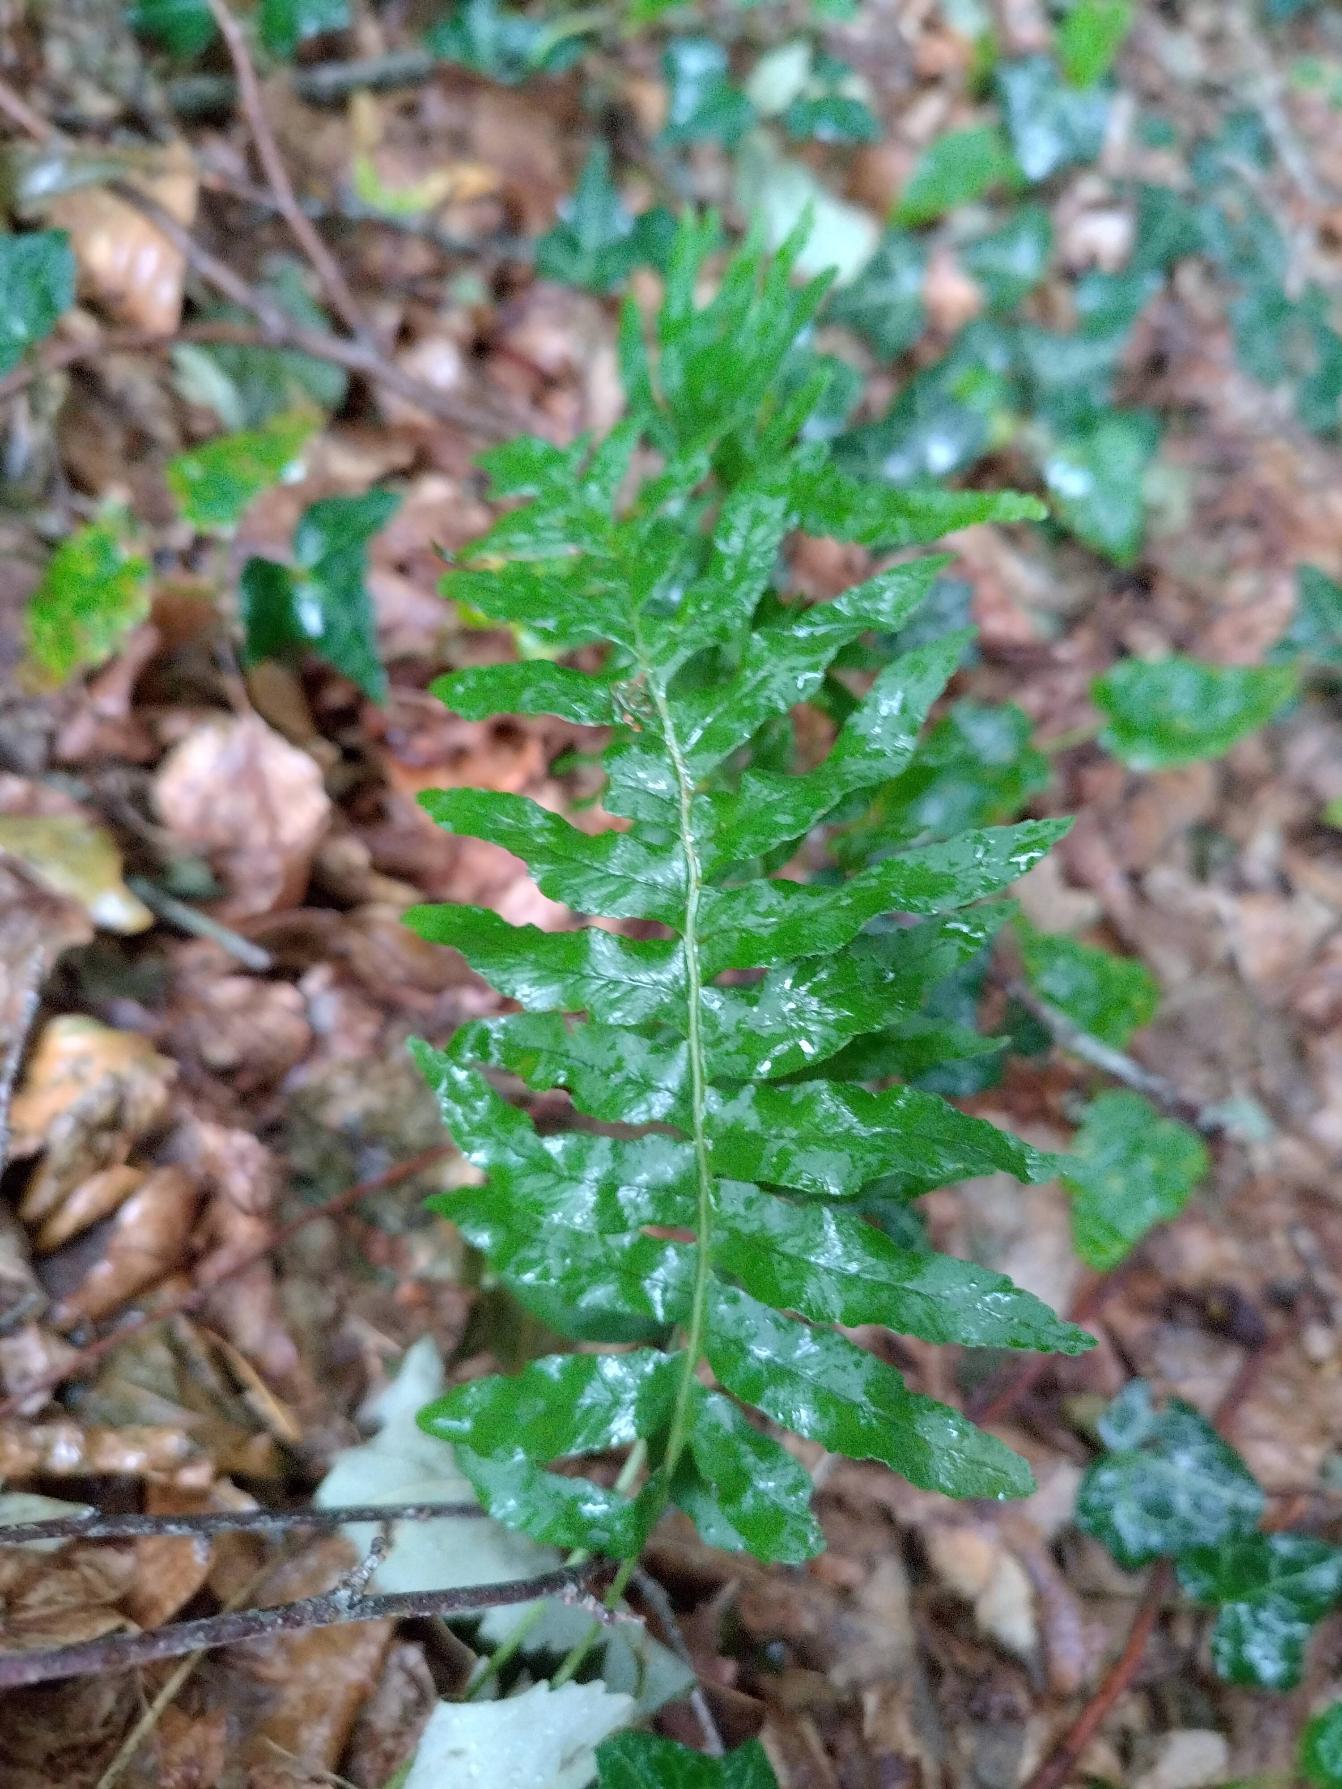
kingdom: Plantae
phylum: Tracheophyta
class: Polypodiopsida
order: Polypodiales
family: Polypodiaceae
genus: Polypodium
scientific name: Polypodium vulgare
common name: Almindelig engelsød
